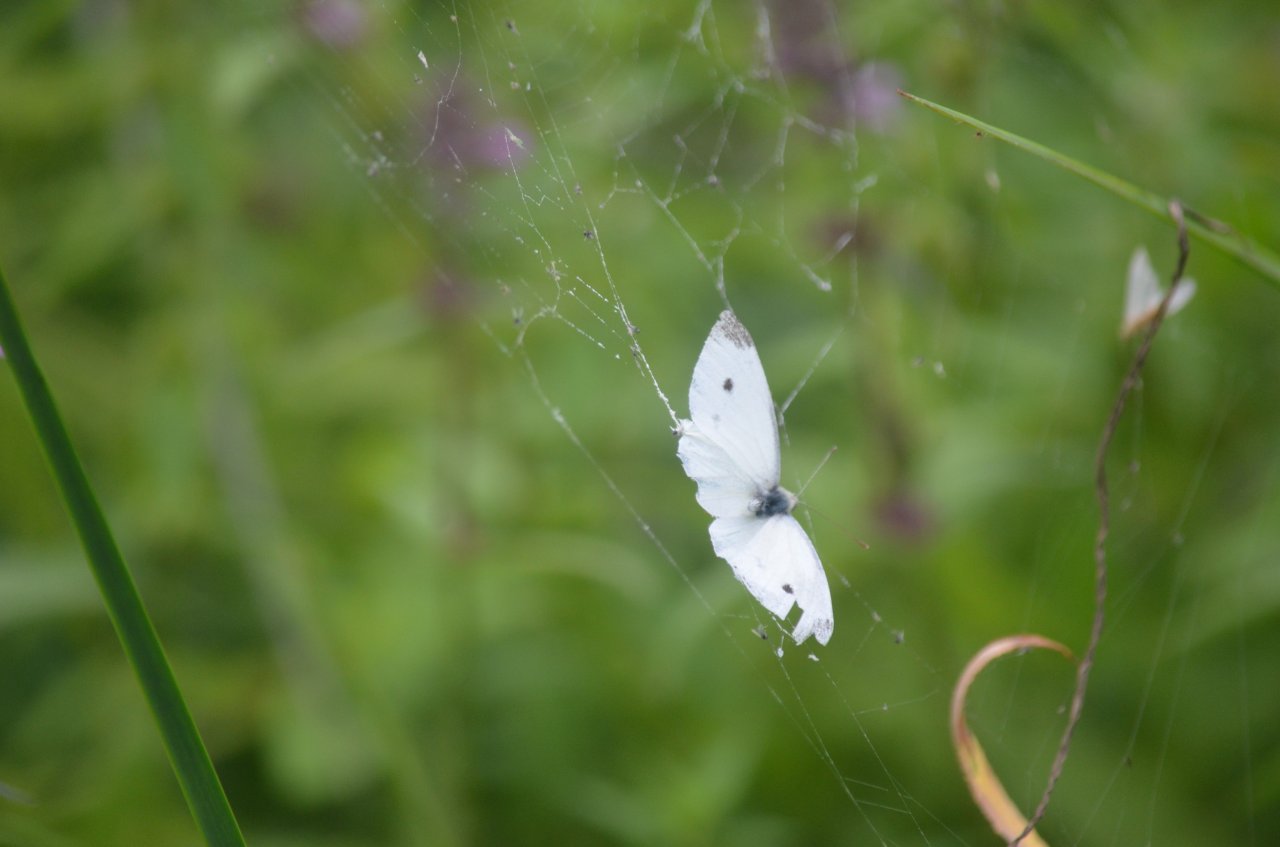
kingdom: Animalia
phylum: Arthropoda
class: Insecta
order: Lepidoptera
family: Pieridae
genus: Pieris
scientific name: Pieris rapae
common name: Cabbage White
